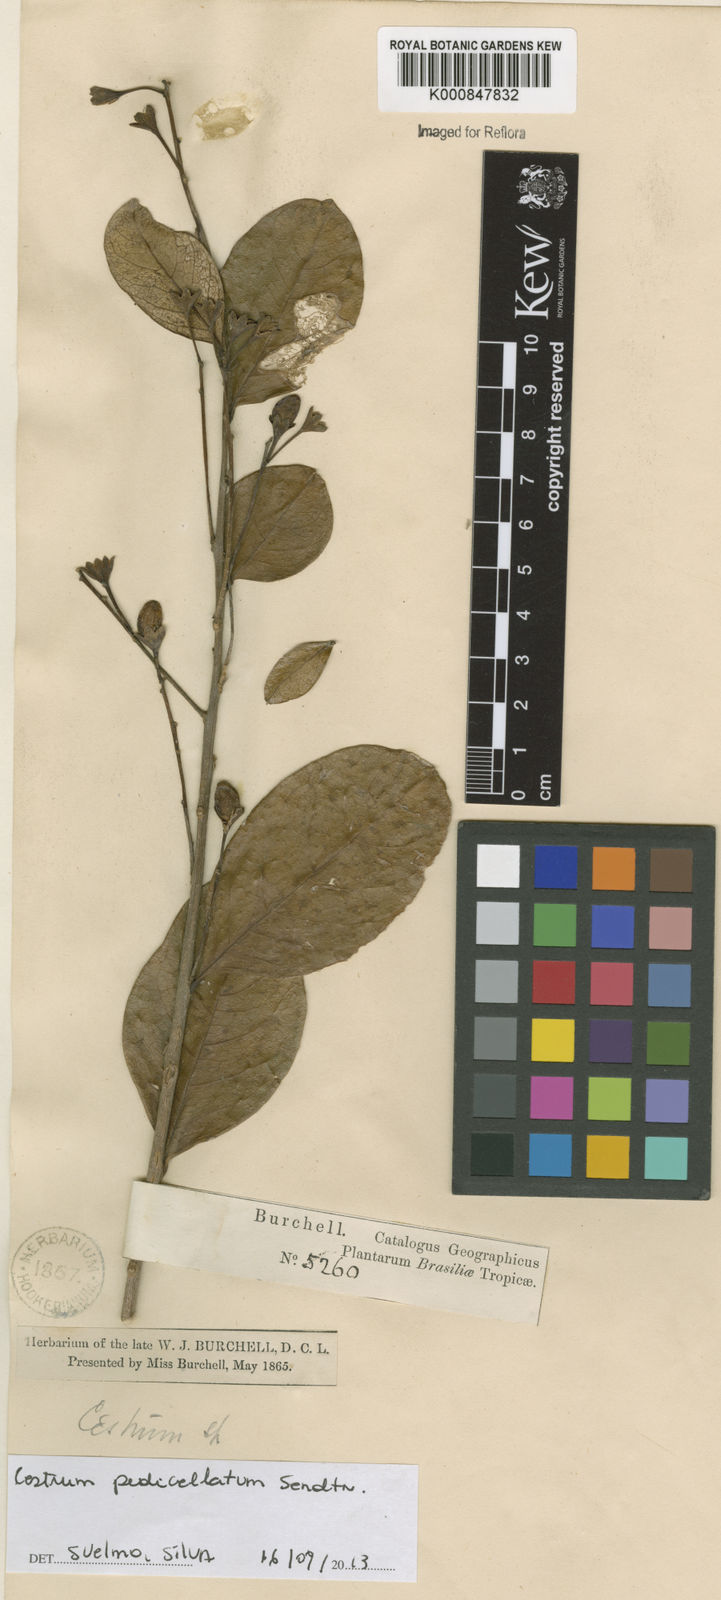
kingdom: Plantae
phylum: Tracheophyta
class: Magnoliopsida
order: Solanales
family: Solanaceae
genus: Cestrum
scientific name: Cestrum pedicellatum
